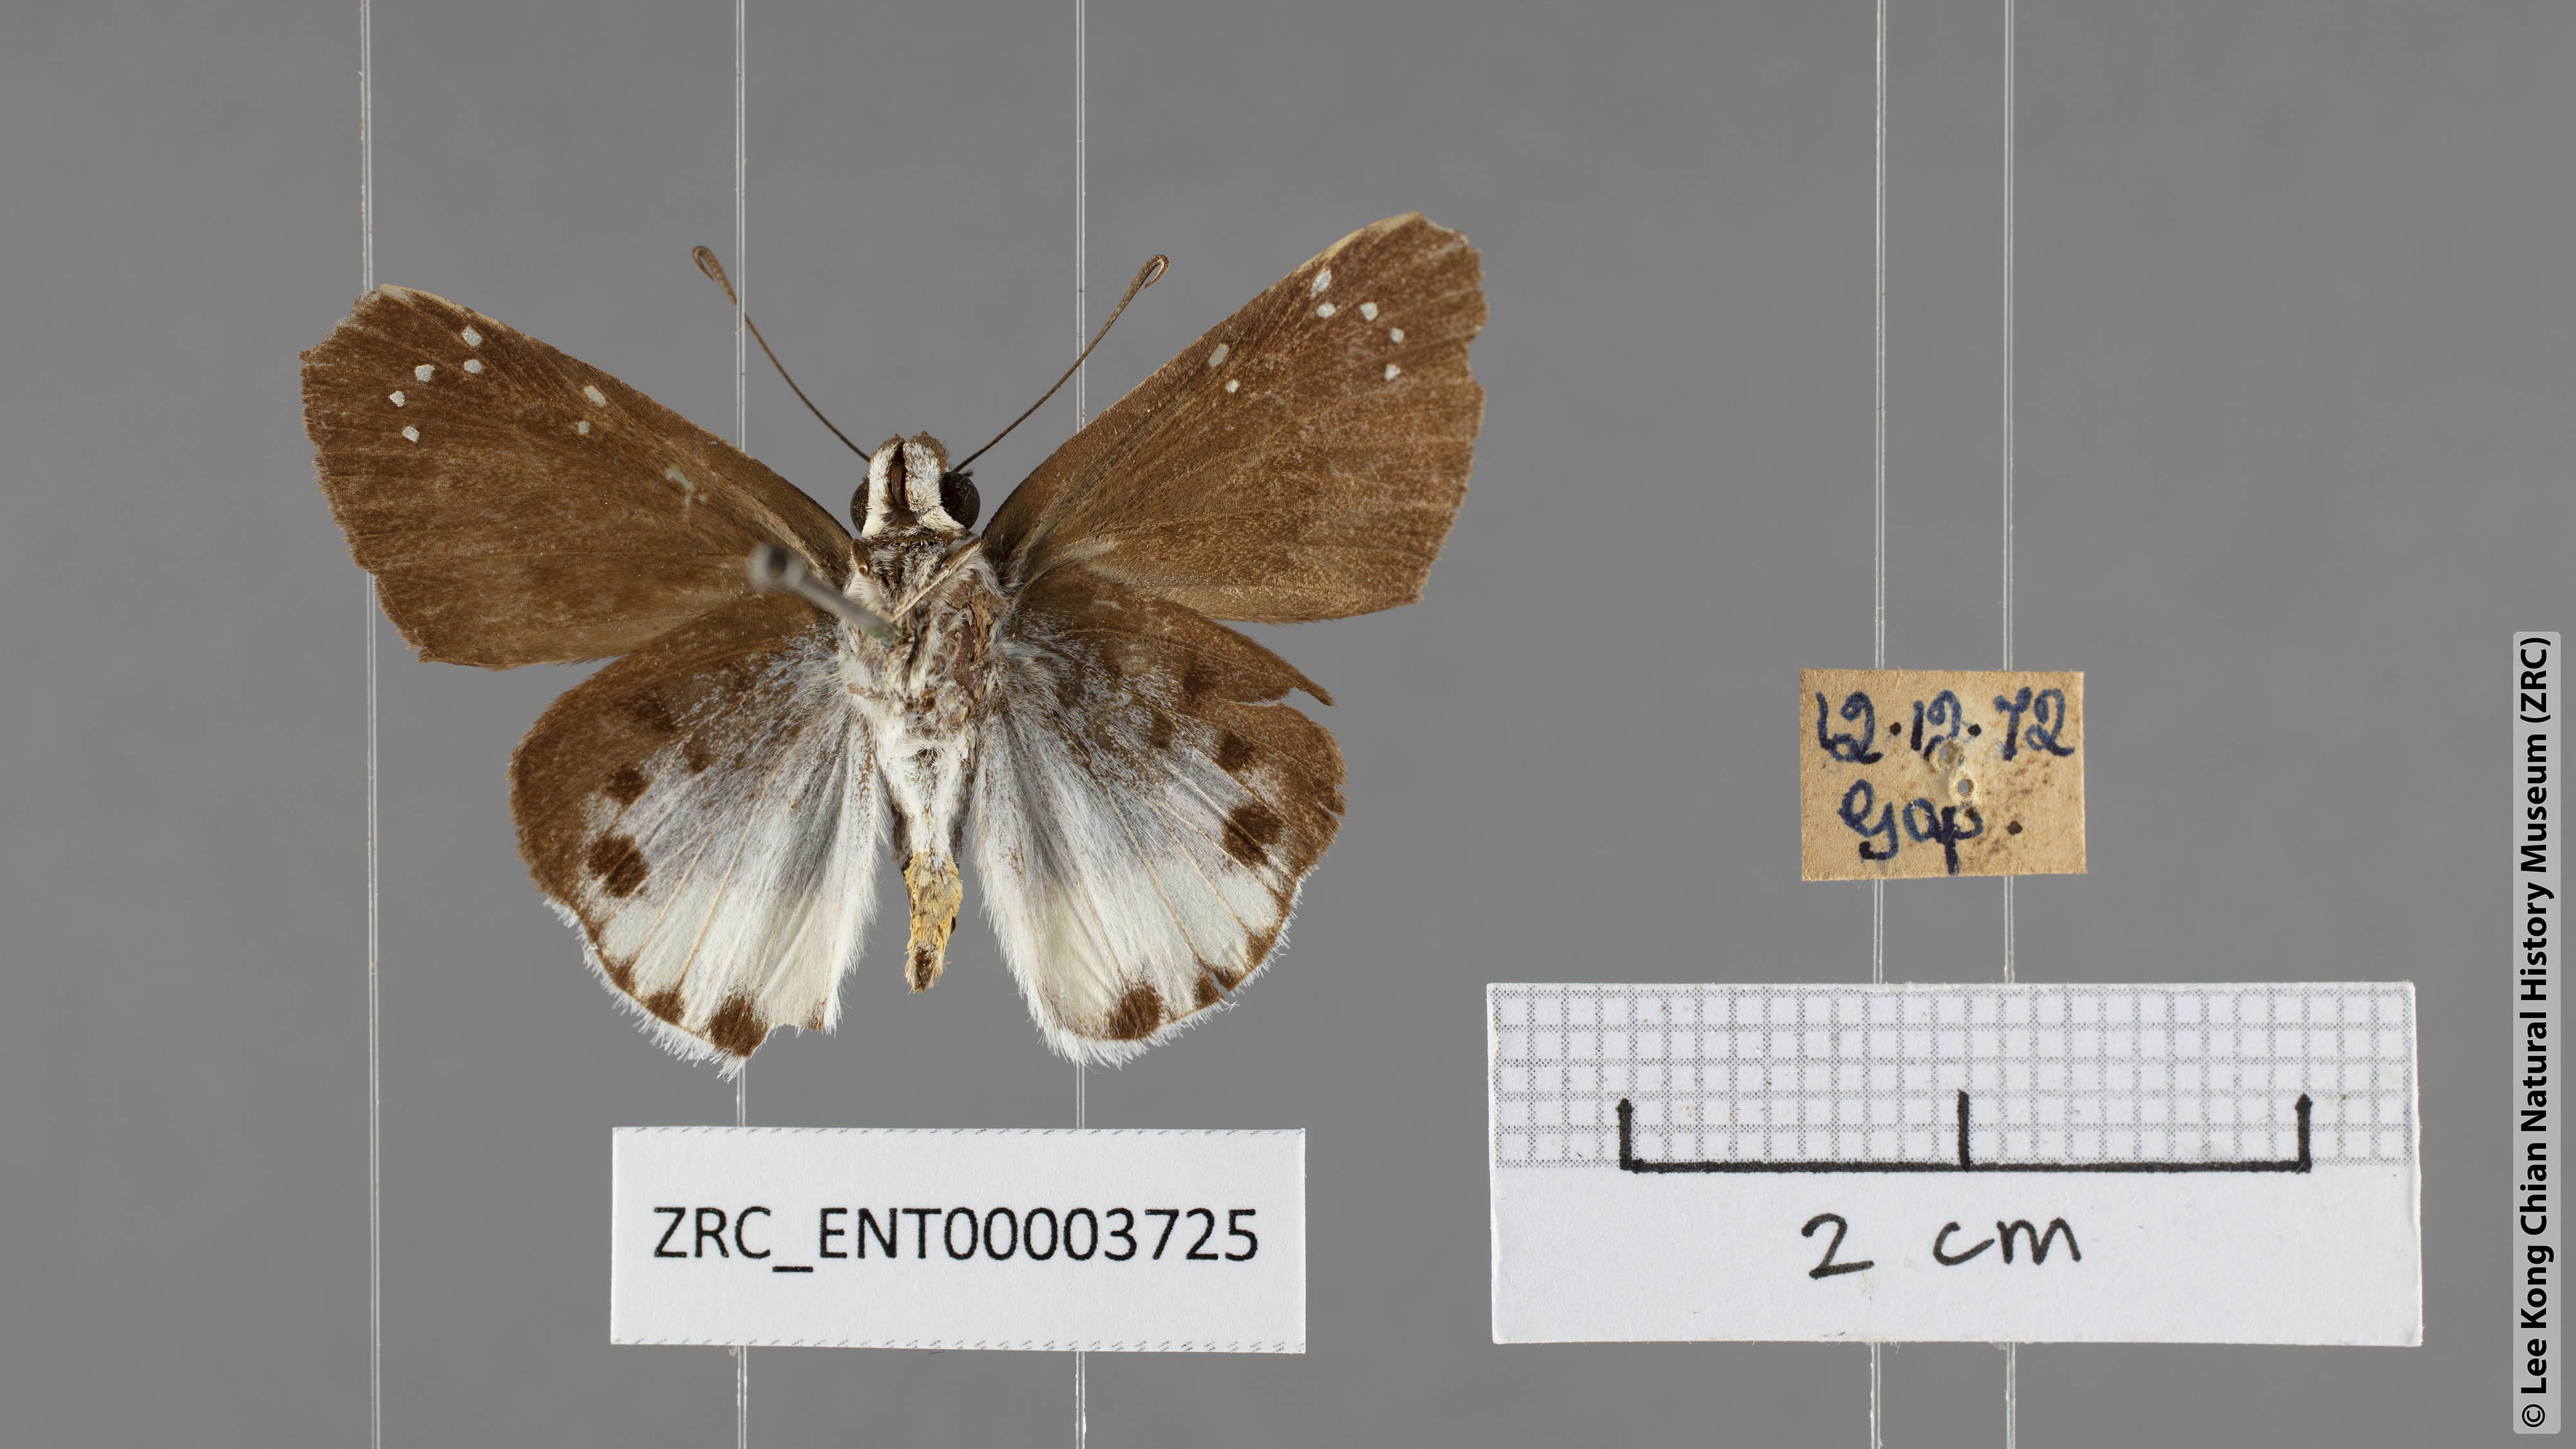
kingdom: Animalia
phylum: Arthropoda
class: Insecta
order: Lepidoptera
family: Hesperiidae
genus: Tagiades
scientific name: Tagiades waterstradti
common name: Waterstradt snow flat
